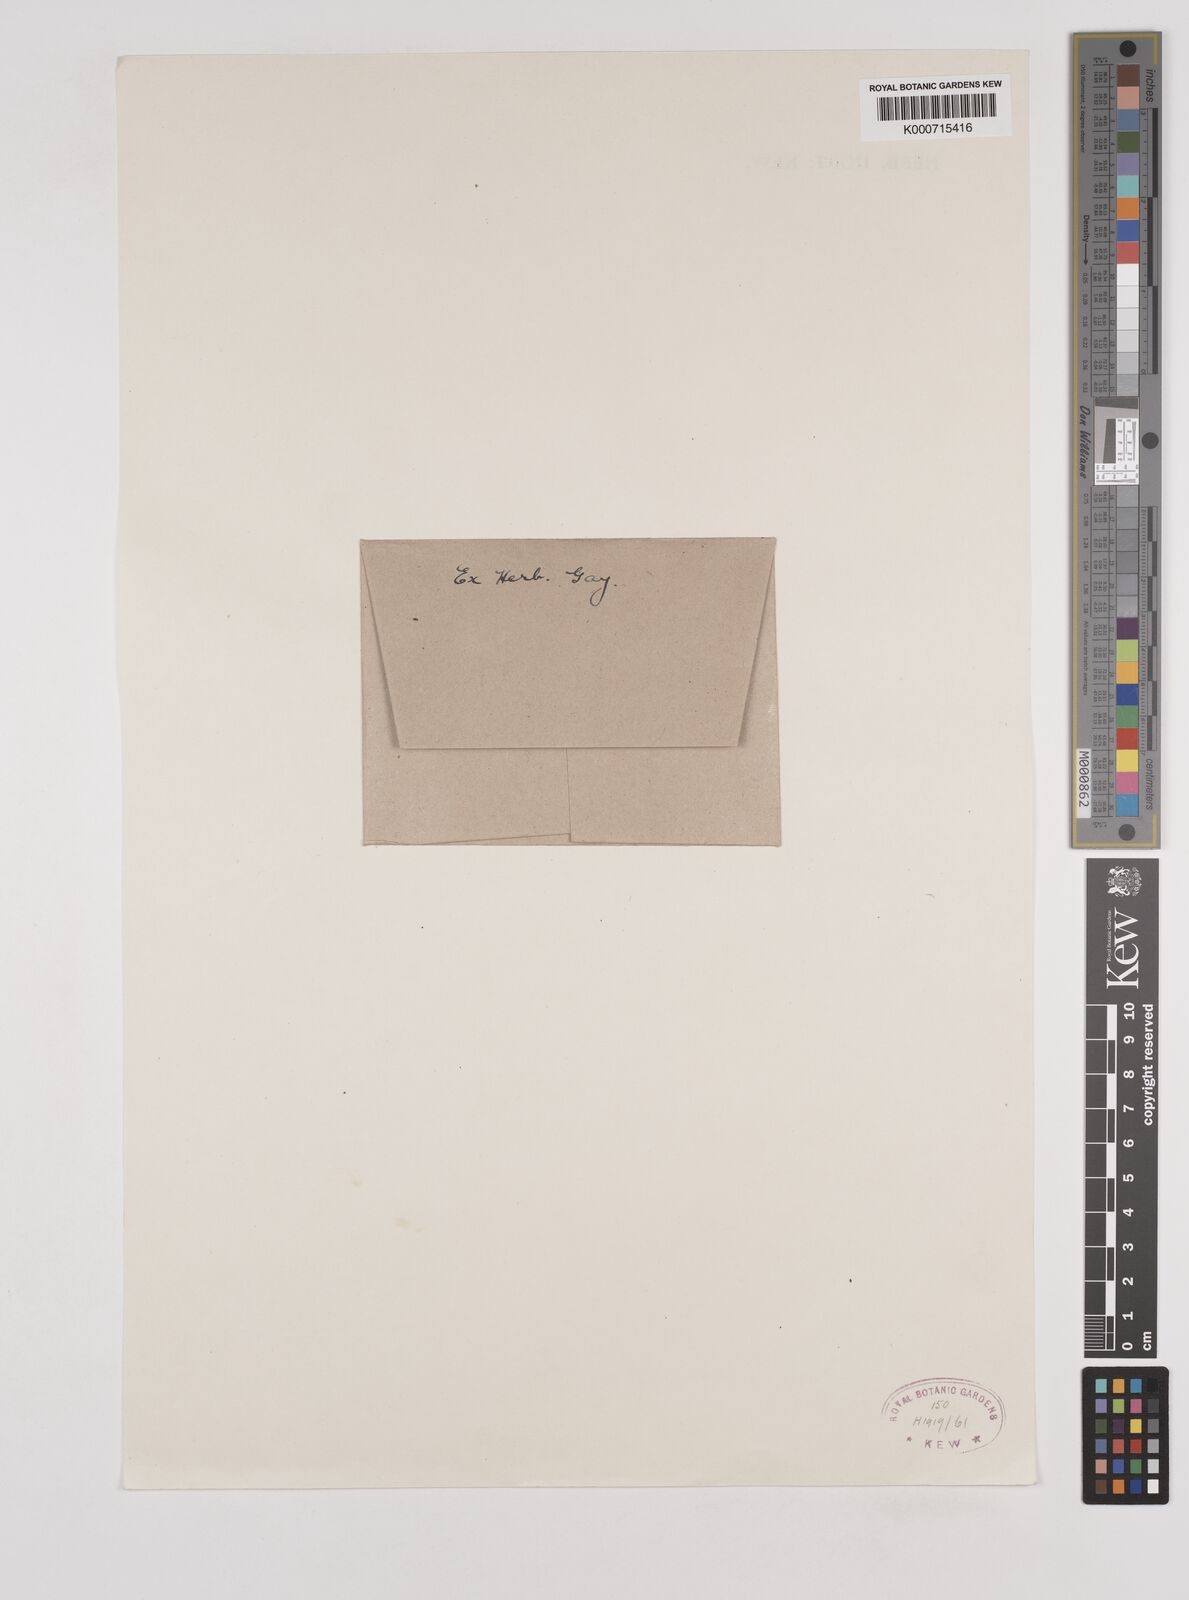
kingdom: Plantae
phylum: Tracheophyta
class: Liliopsida
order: Poales
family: Poaceae
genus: Rytidosperma
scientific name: Rytidosperma semiannulare
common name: Tasmanian wallaby grass
